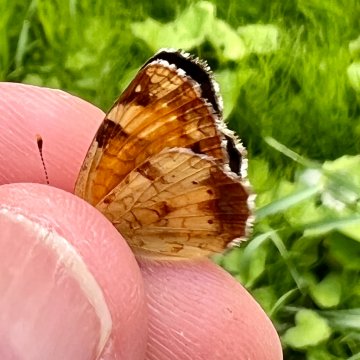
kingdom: Animalia
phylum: Arthropoda
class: Insecta
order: Lepidoptera
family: Nymphalidae
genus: Phyciodes
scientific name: Phyciodes tharos
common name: Northern Crescent
